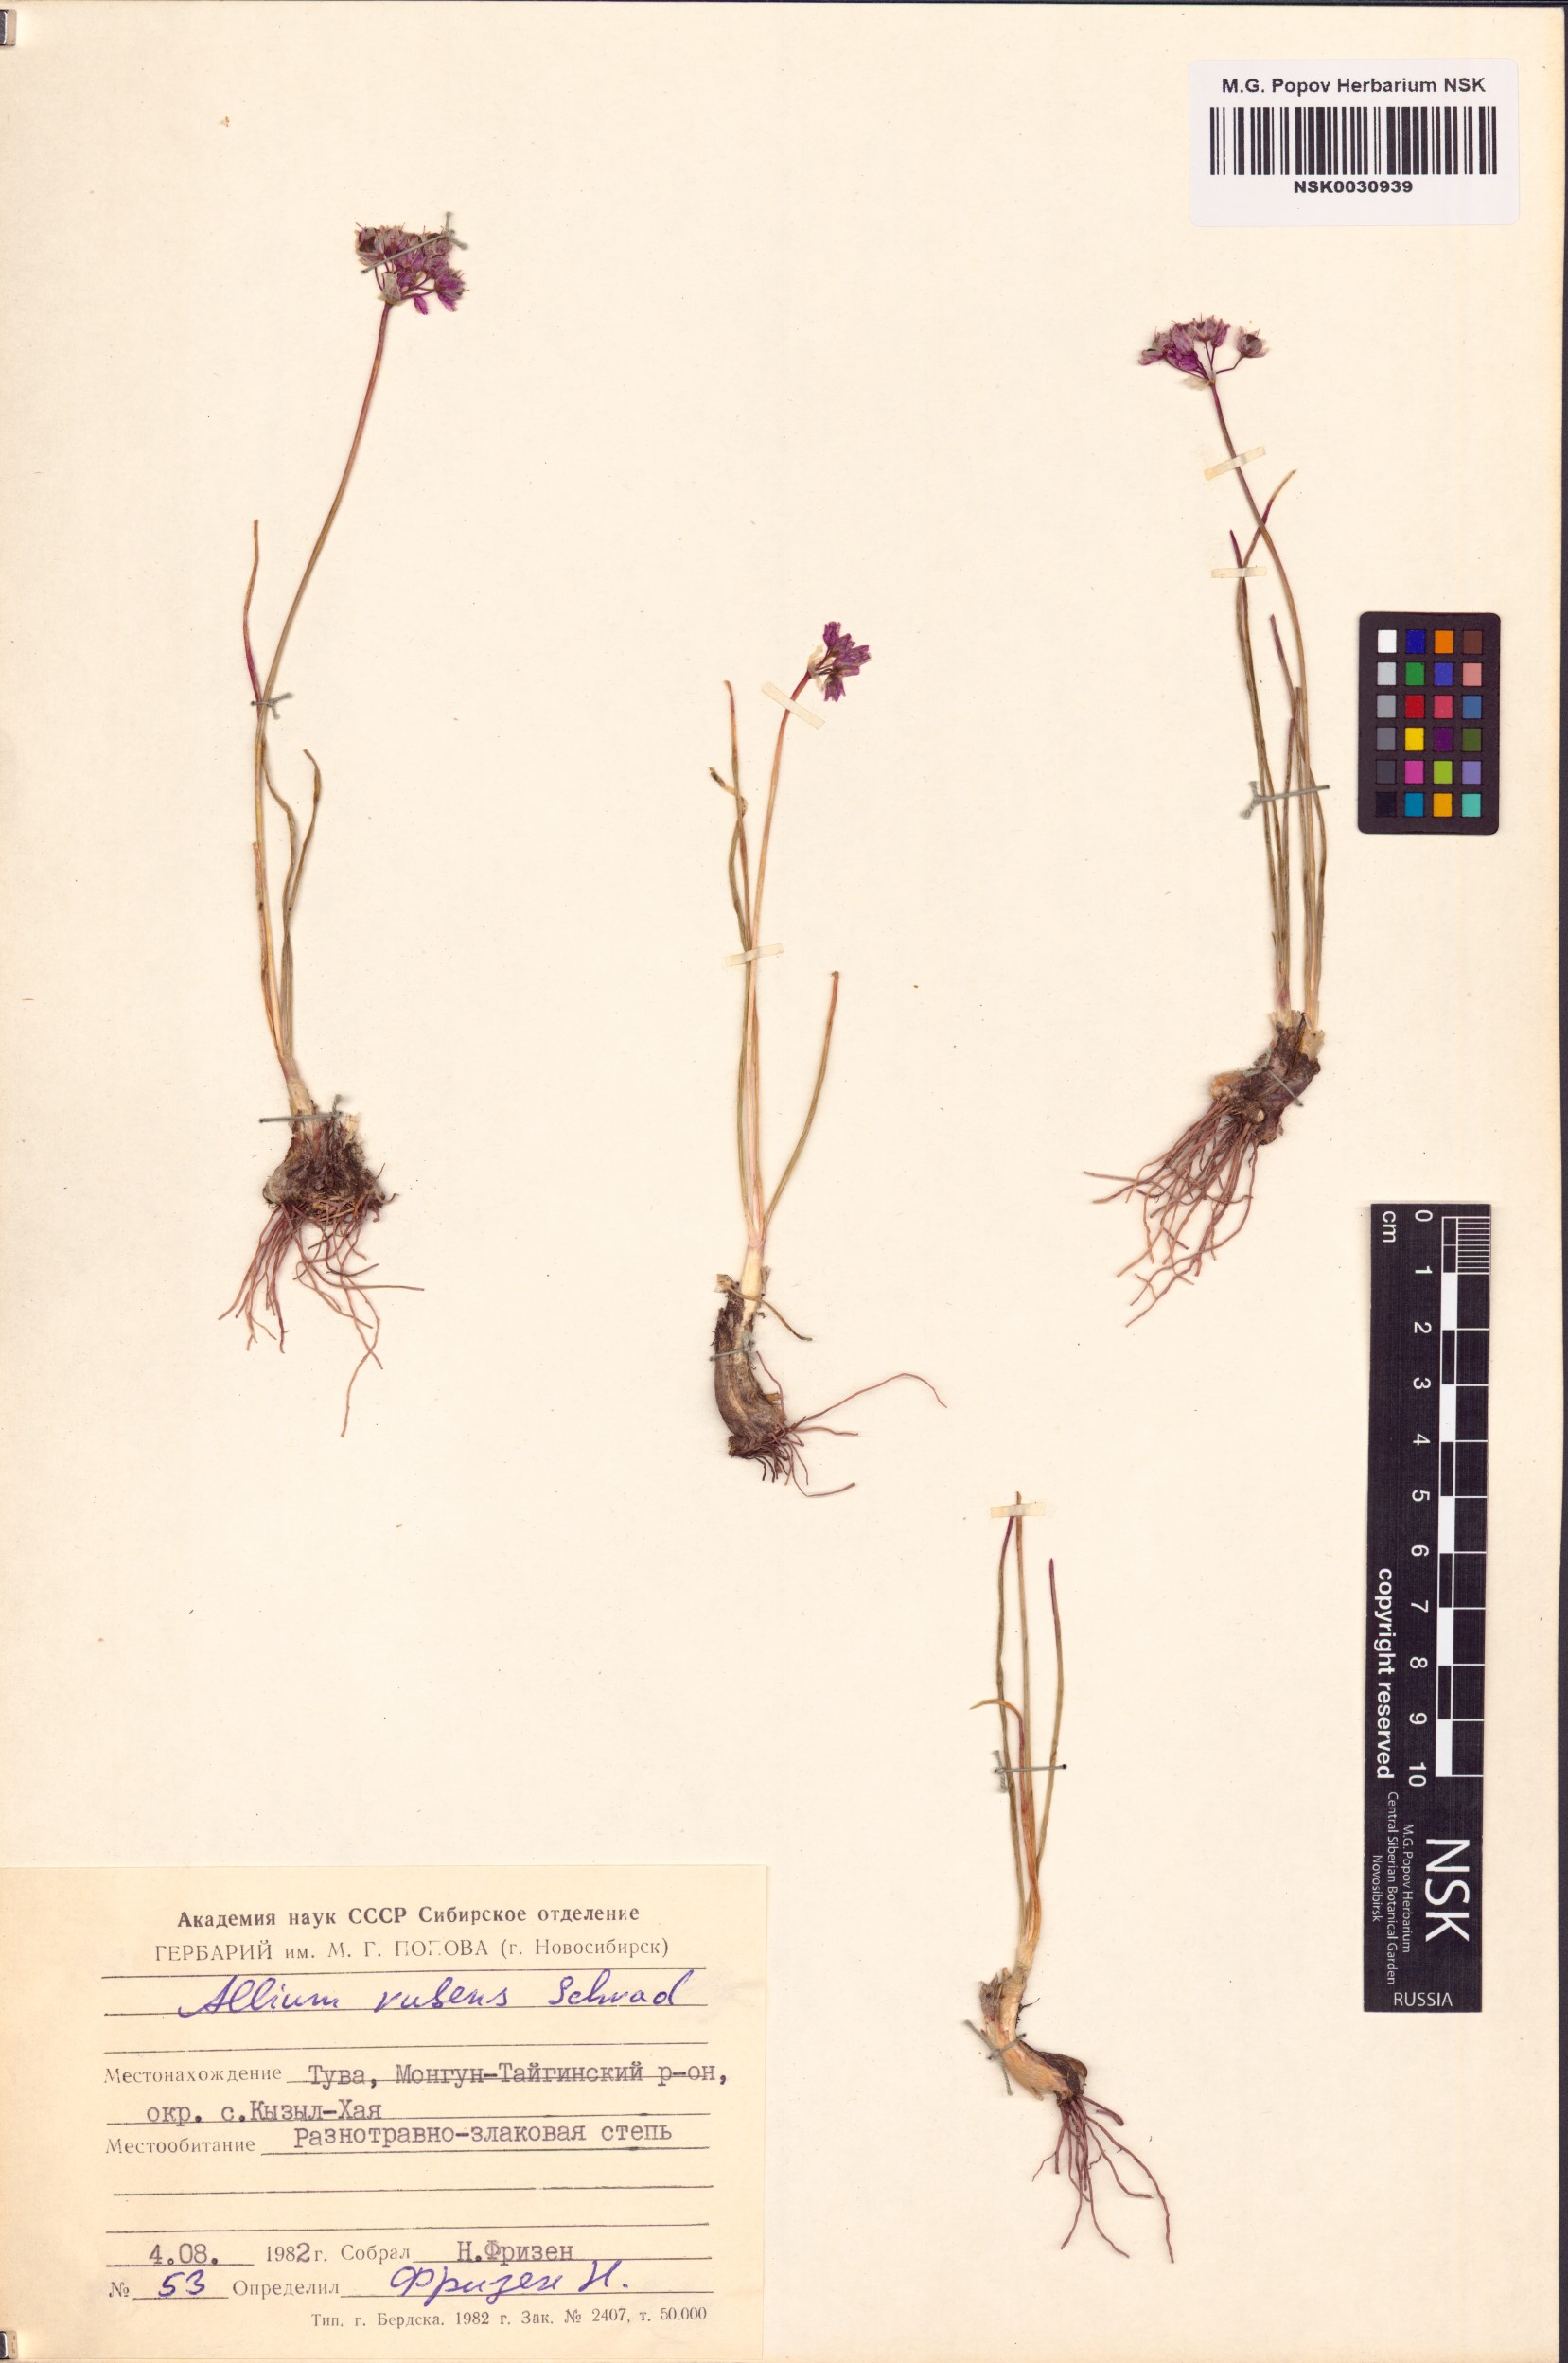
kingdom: Plantae
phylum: Tracheophyta
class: Liliopsida
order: Asparagales
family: Amaryllidaceae
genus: Allium
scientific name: Allium rubens
